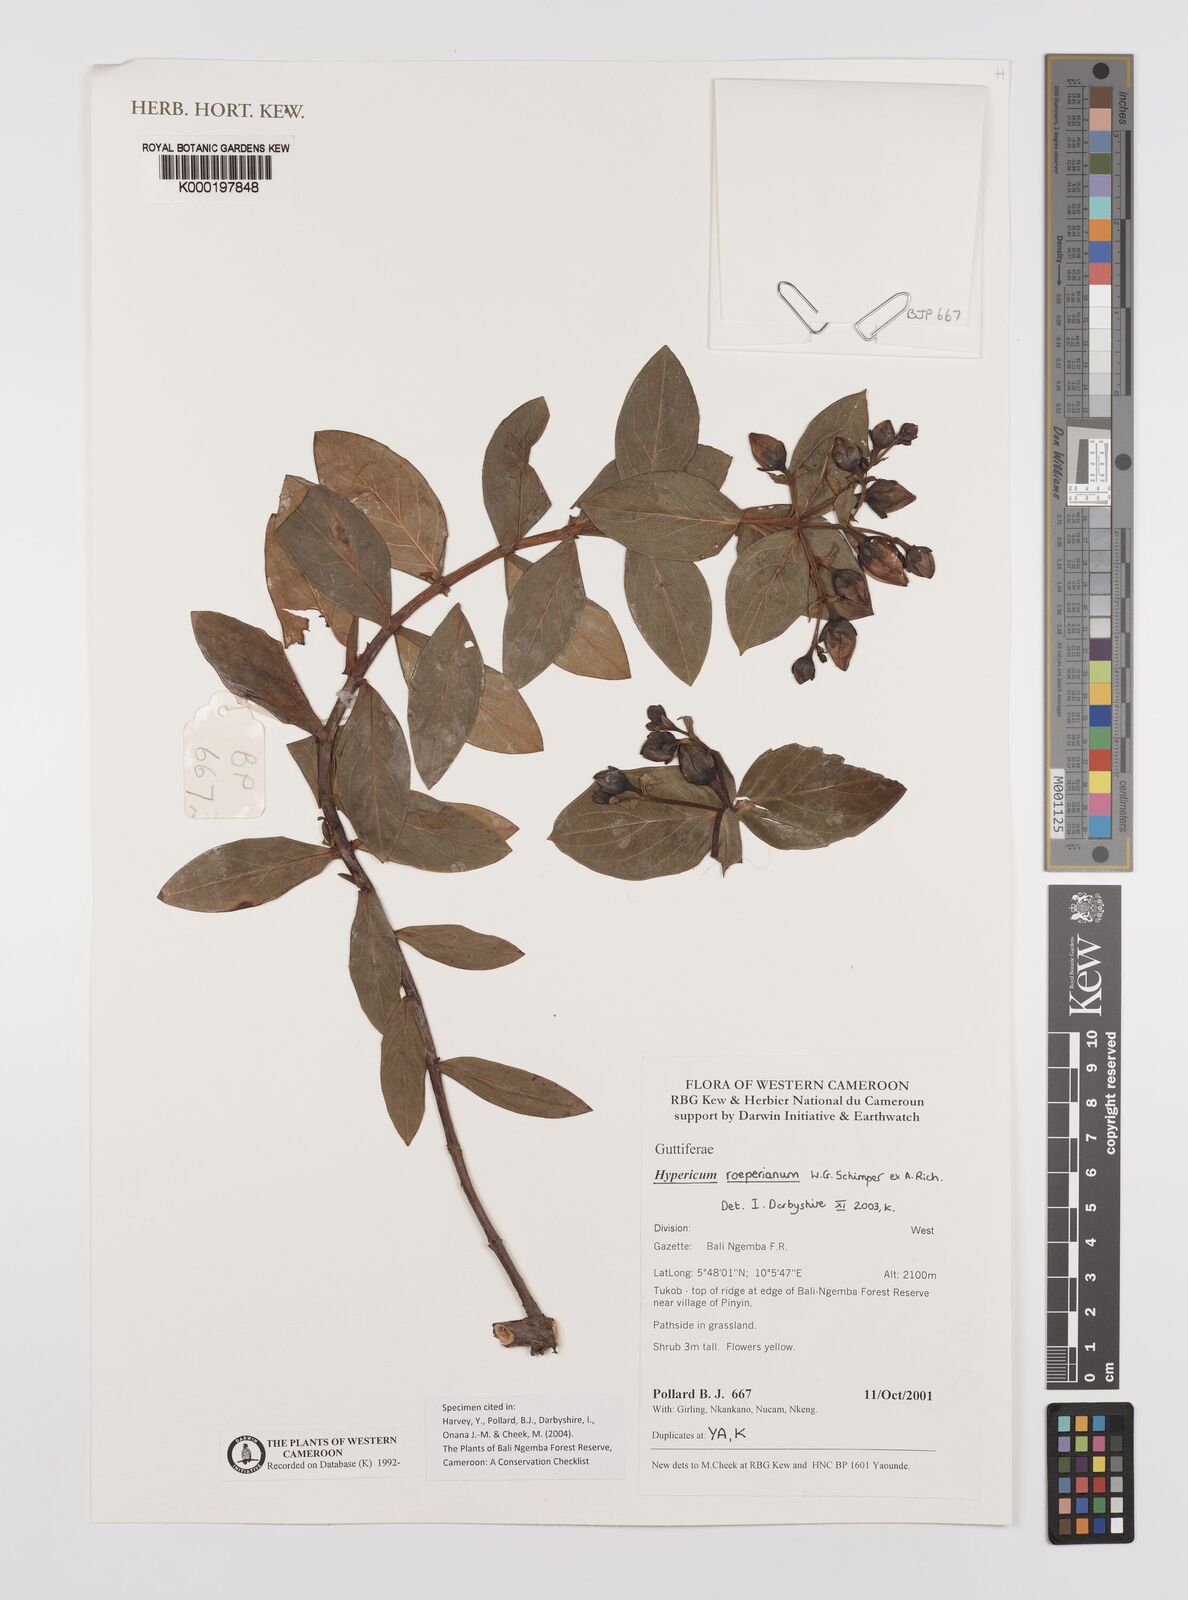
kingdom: Plantae
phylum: Tracheophyta
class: Magnoliopsida
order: Malpighiales
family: Hypericaceae
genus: Hypericum
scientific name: Hypericum roeperianum
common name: Large-leaved curry-bush
